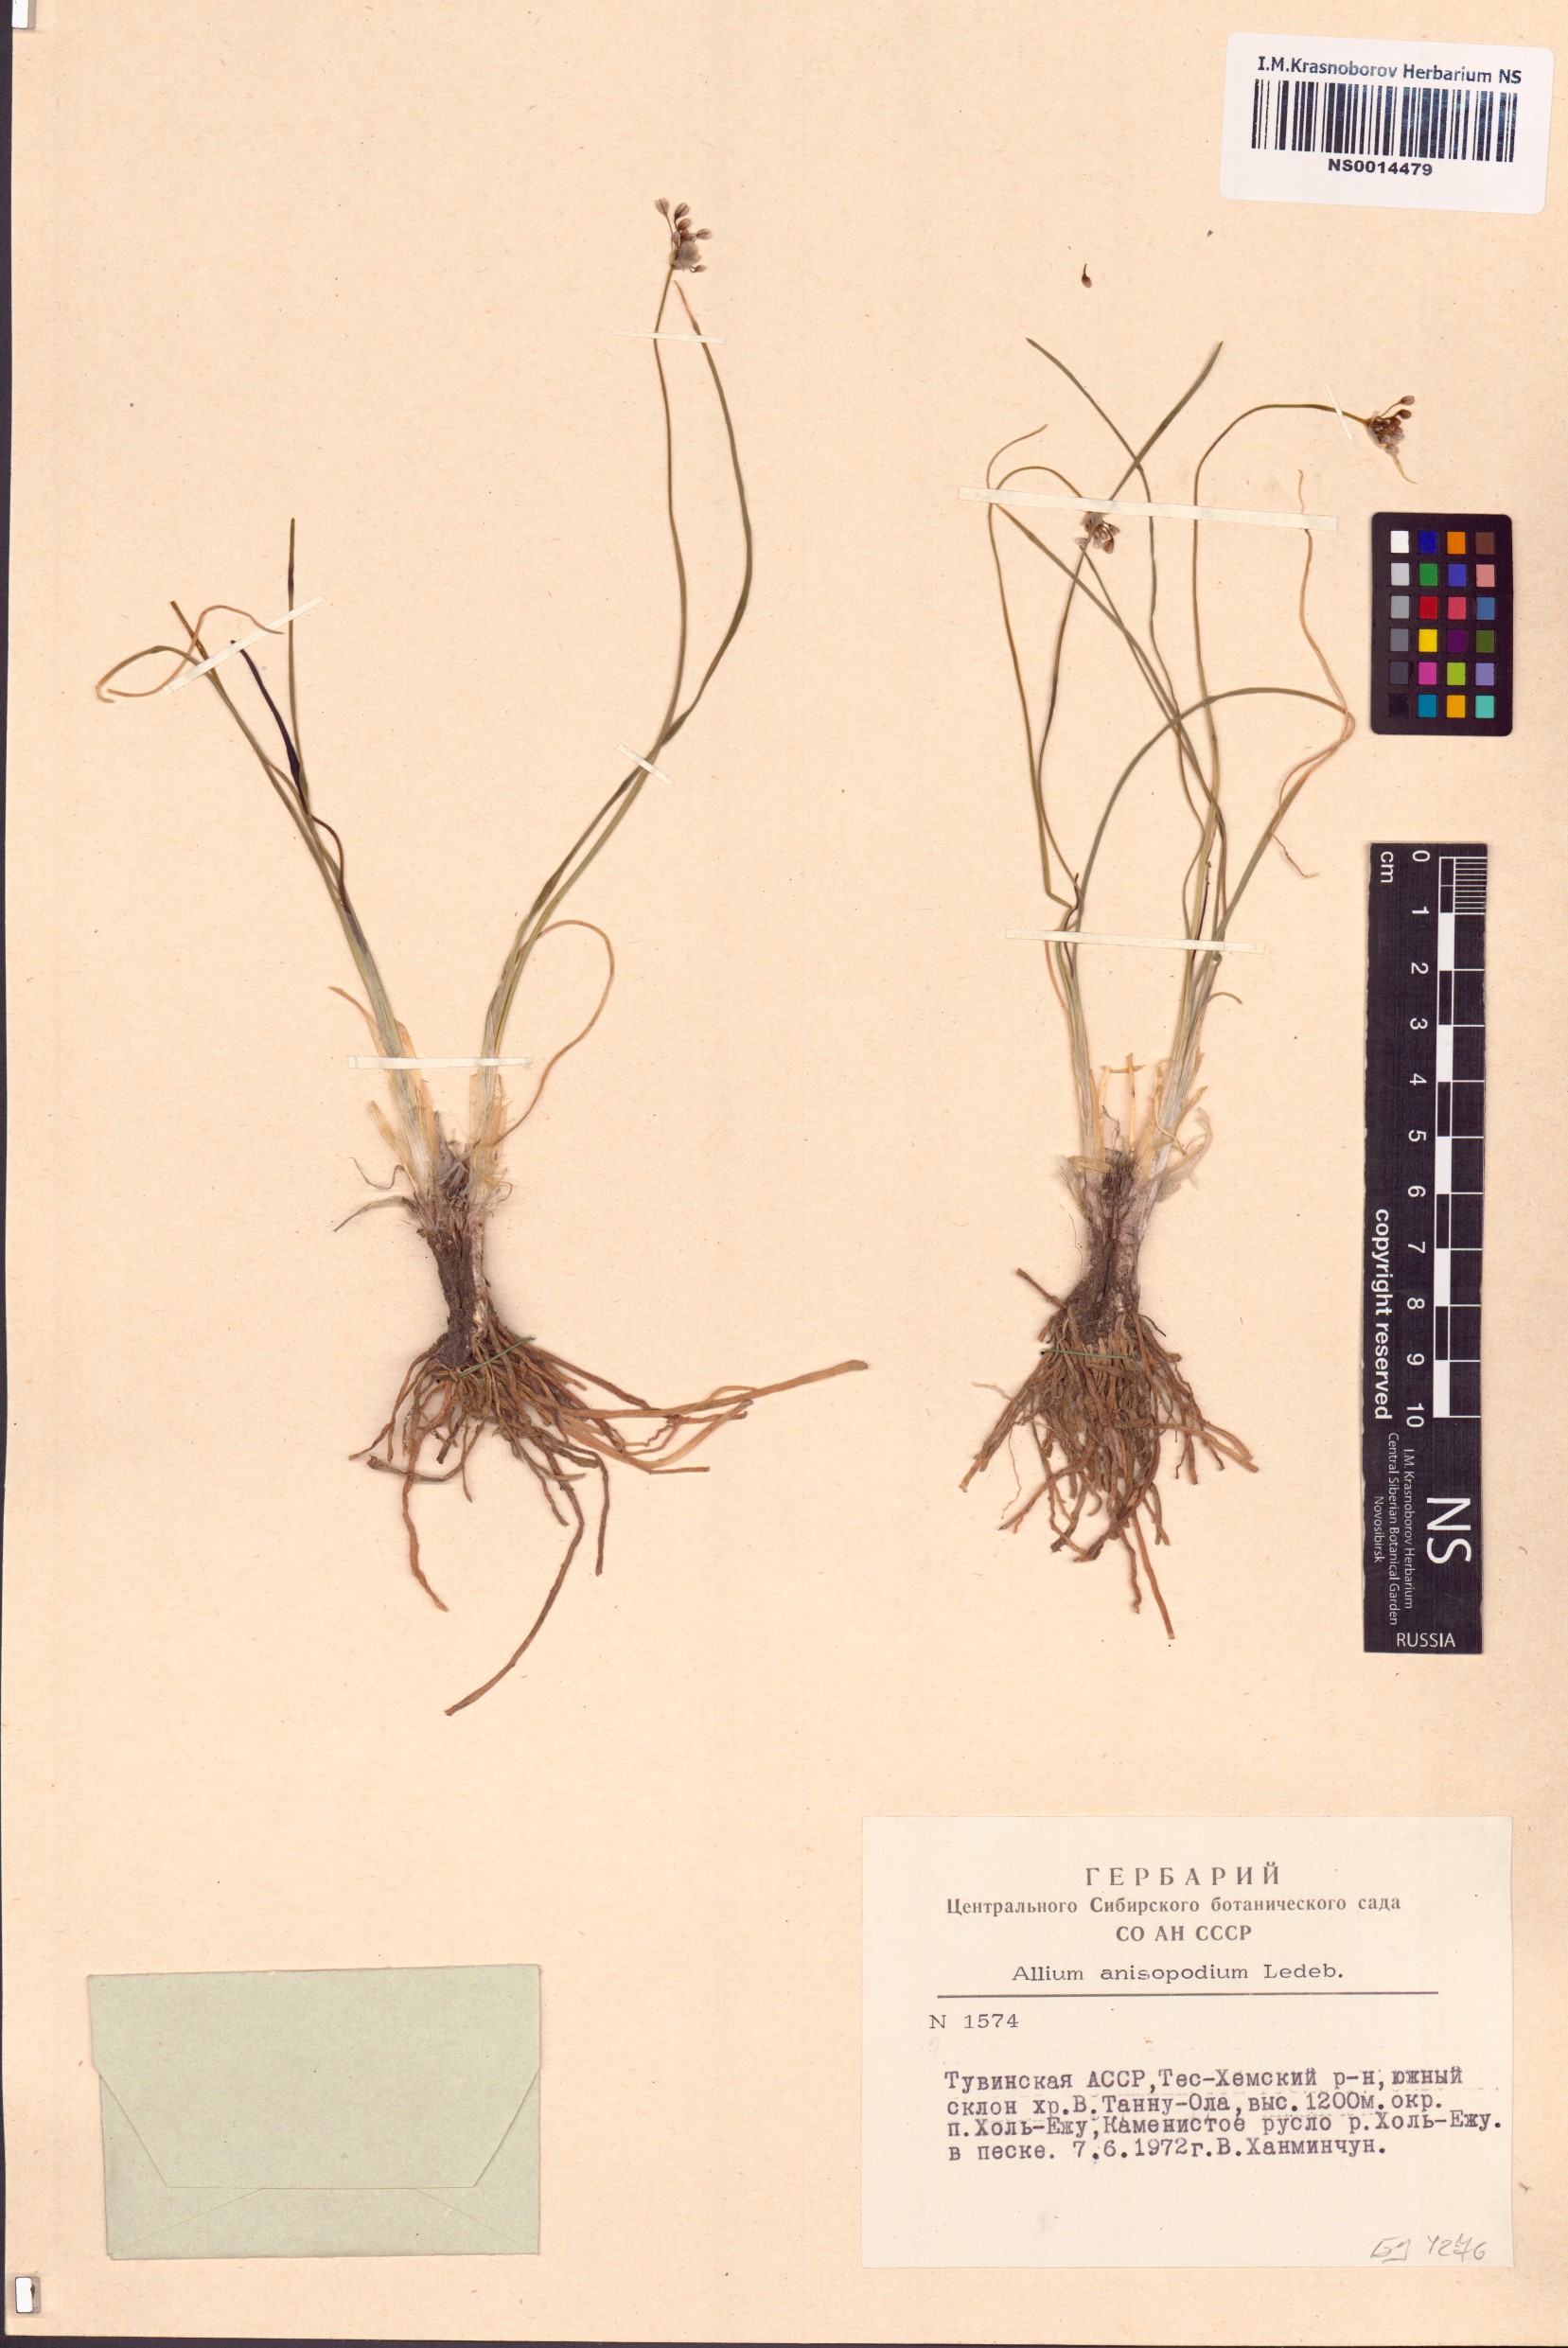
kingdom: Plantae
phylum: Tracheophyta
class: Liliopsida
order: Asparagales
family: Amaryllidaceae
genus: Allium
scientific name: Allium anisopodium
